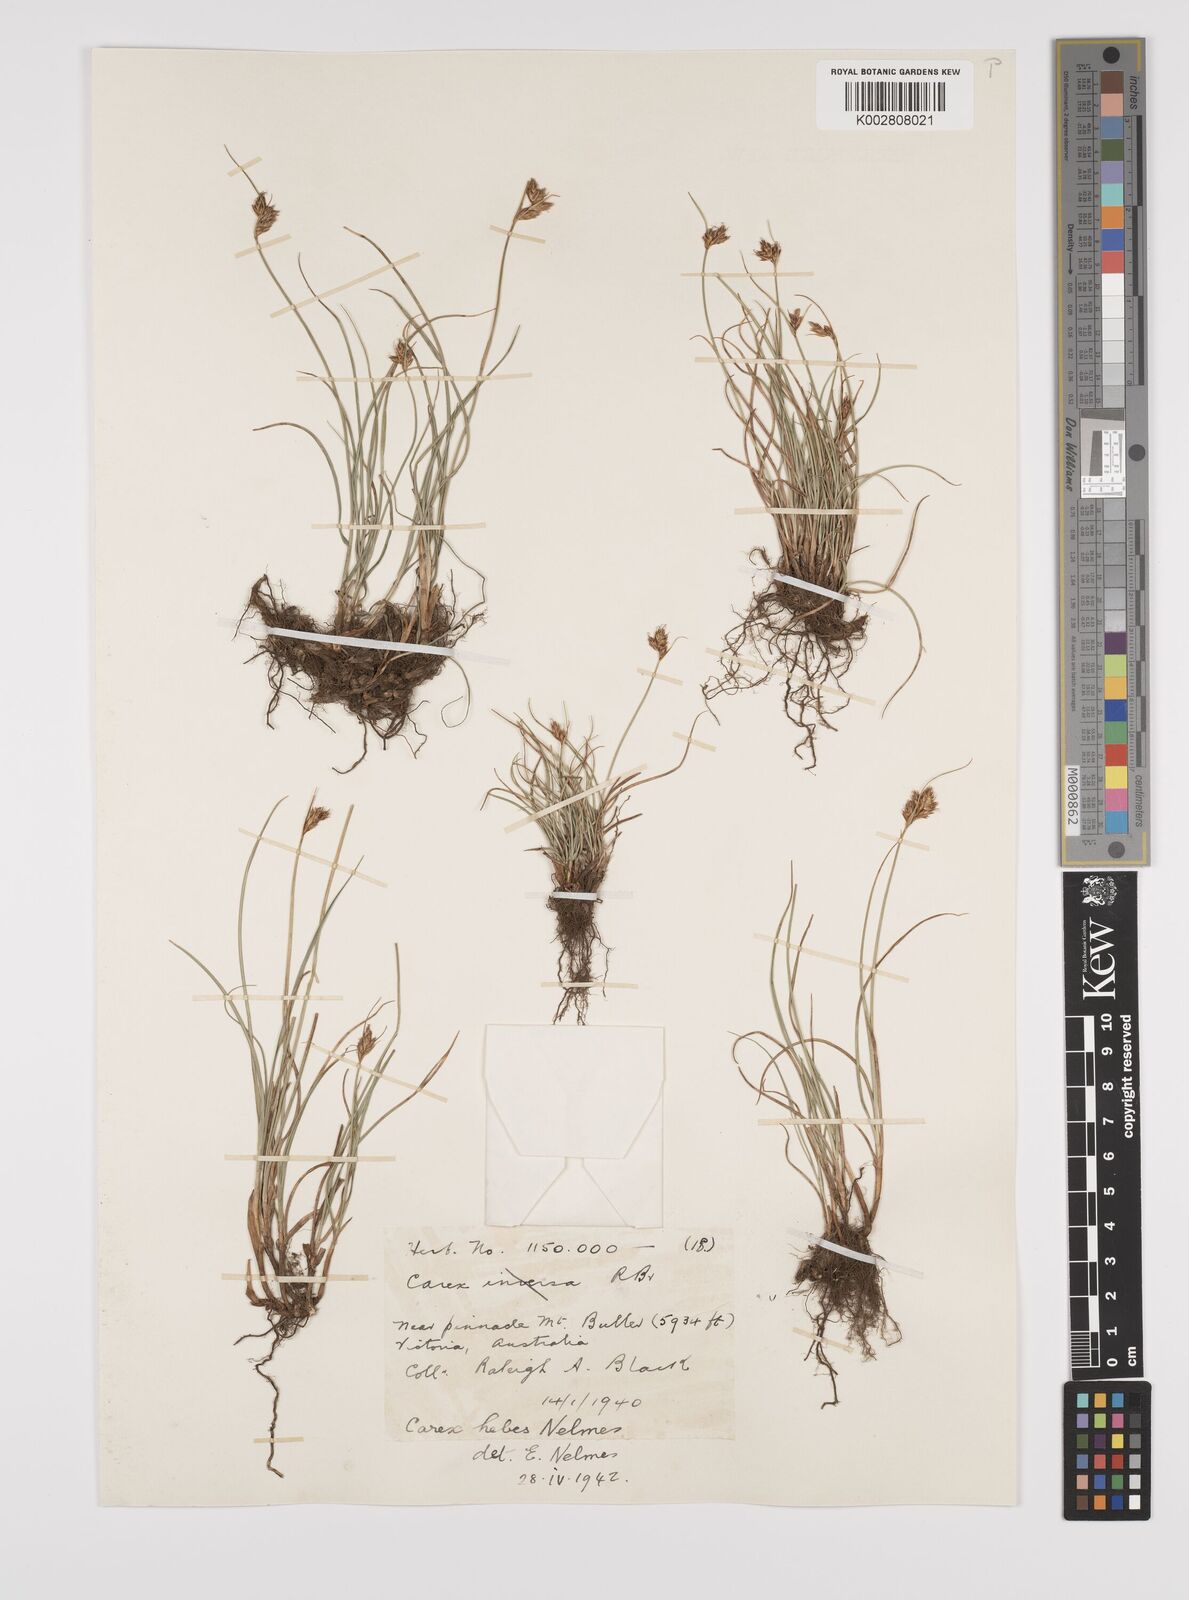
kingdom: Plantae
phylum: Tracheophyta
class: Liliopsida
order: Poales
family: Cyperaceae
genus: Carex
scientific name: Carex hebes
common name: Dry land sedge
